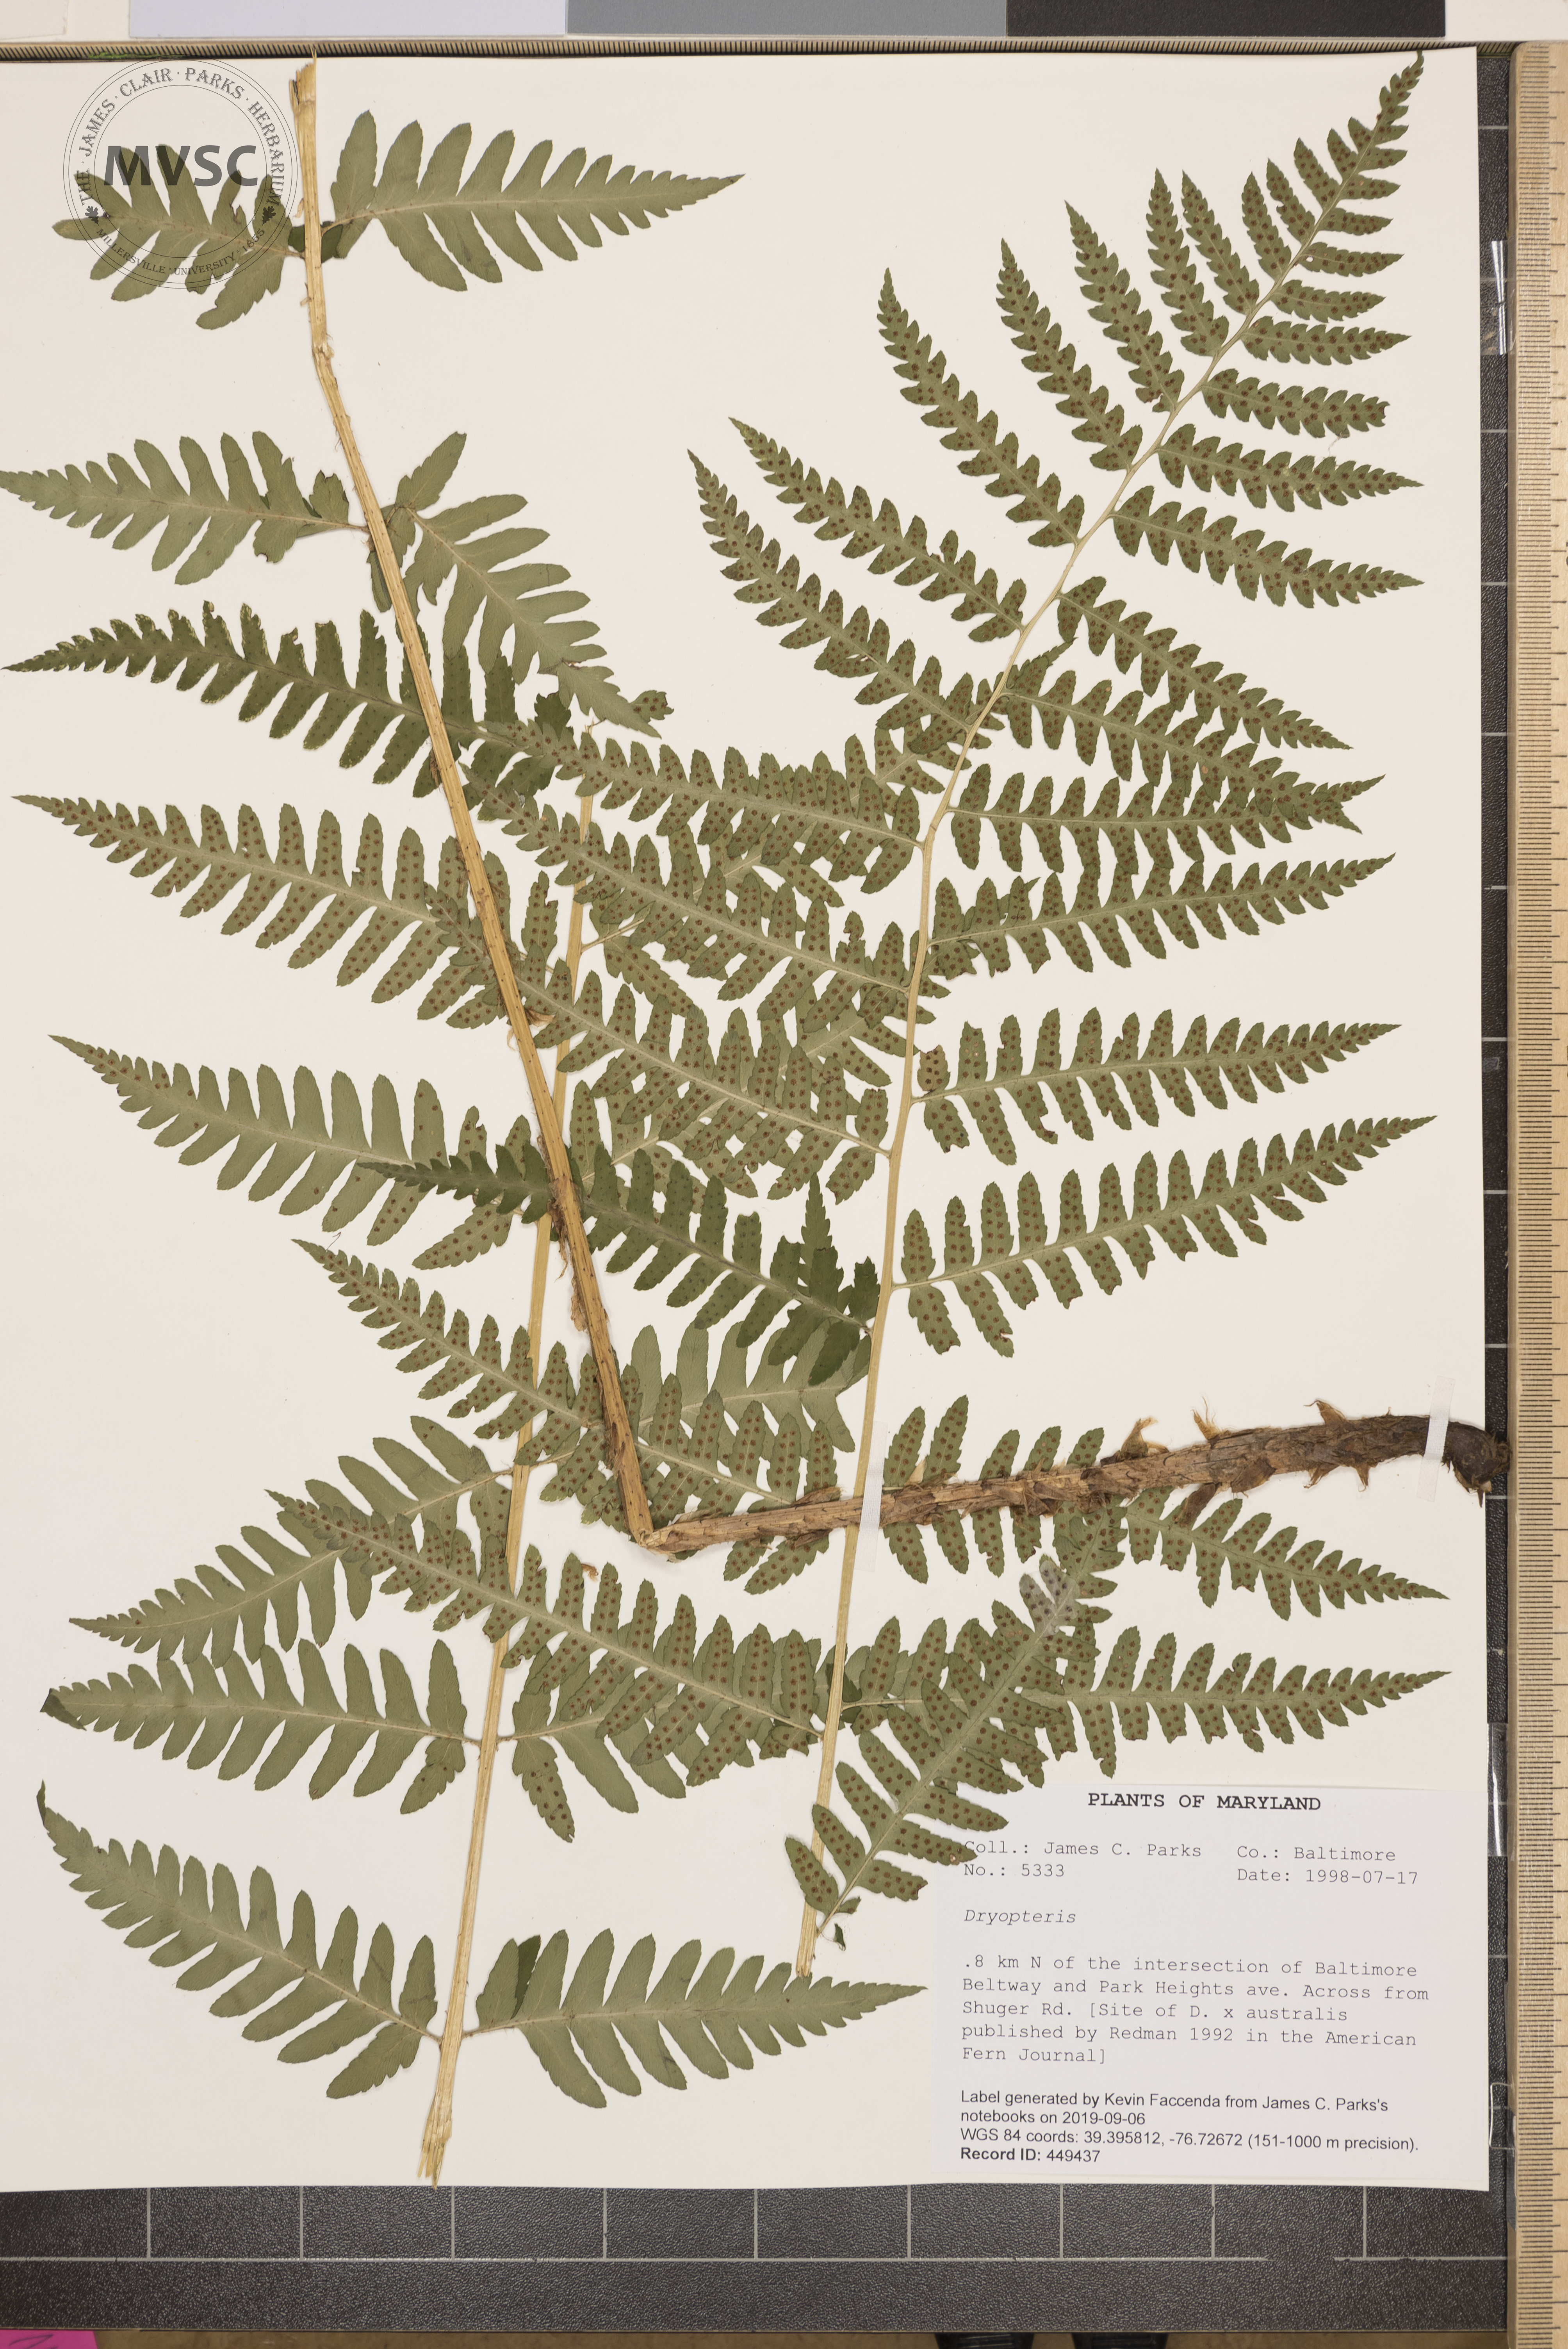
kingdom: Plantae
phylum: Tracheophyta
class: Polypodiopsida
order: Polypodiales
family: Dryopteridaceae
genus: Dryopteris
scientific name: Dryopteris celsa
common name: Log fern
